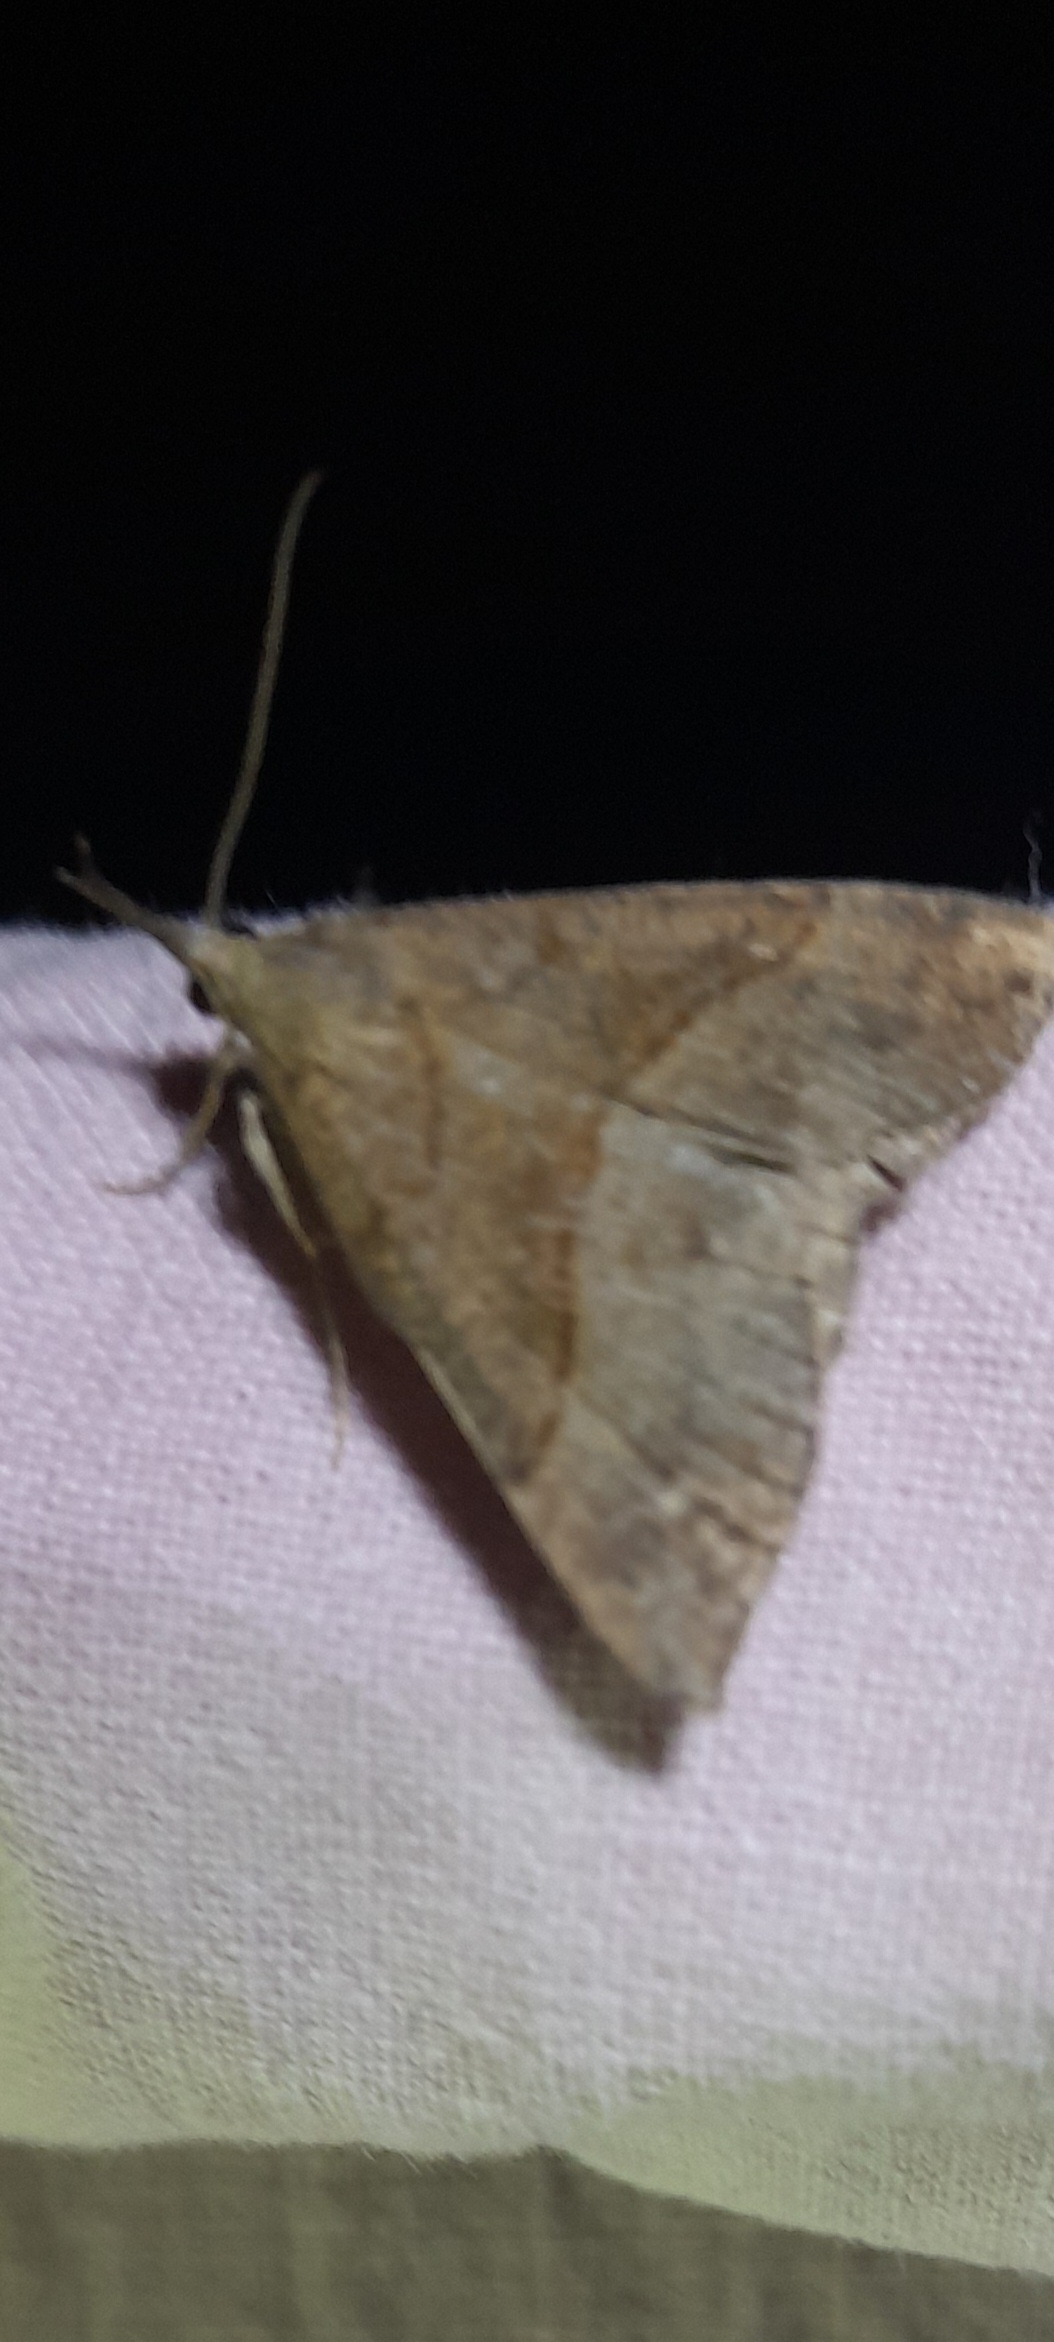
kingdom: Animalia
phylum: Arthropoda
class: Insecta
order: Lepidoptera
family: Erebidae
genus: Hypena
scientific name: Hypena proboscidalis
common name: Snudeugle
